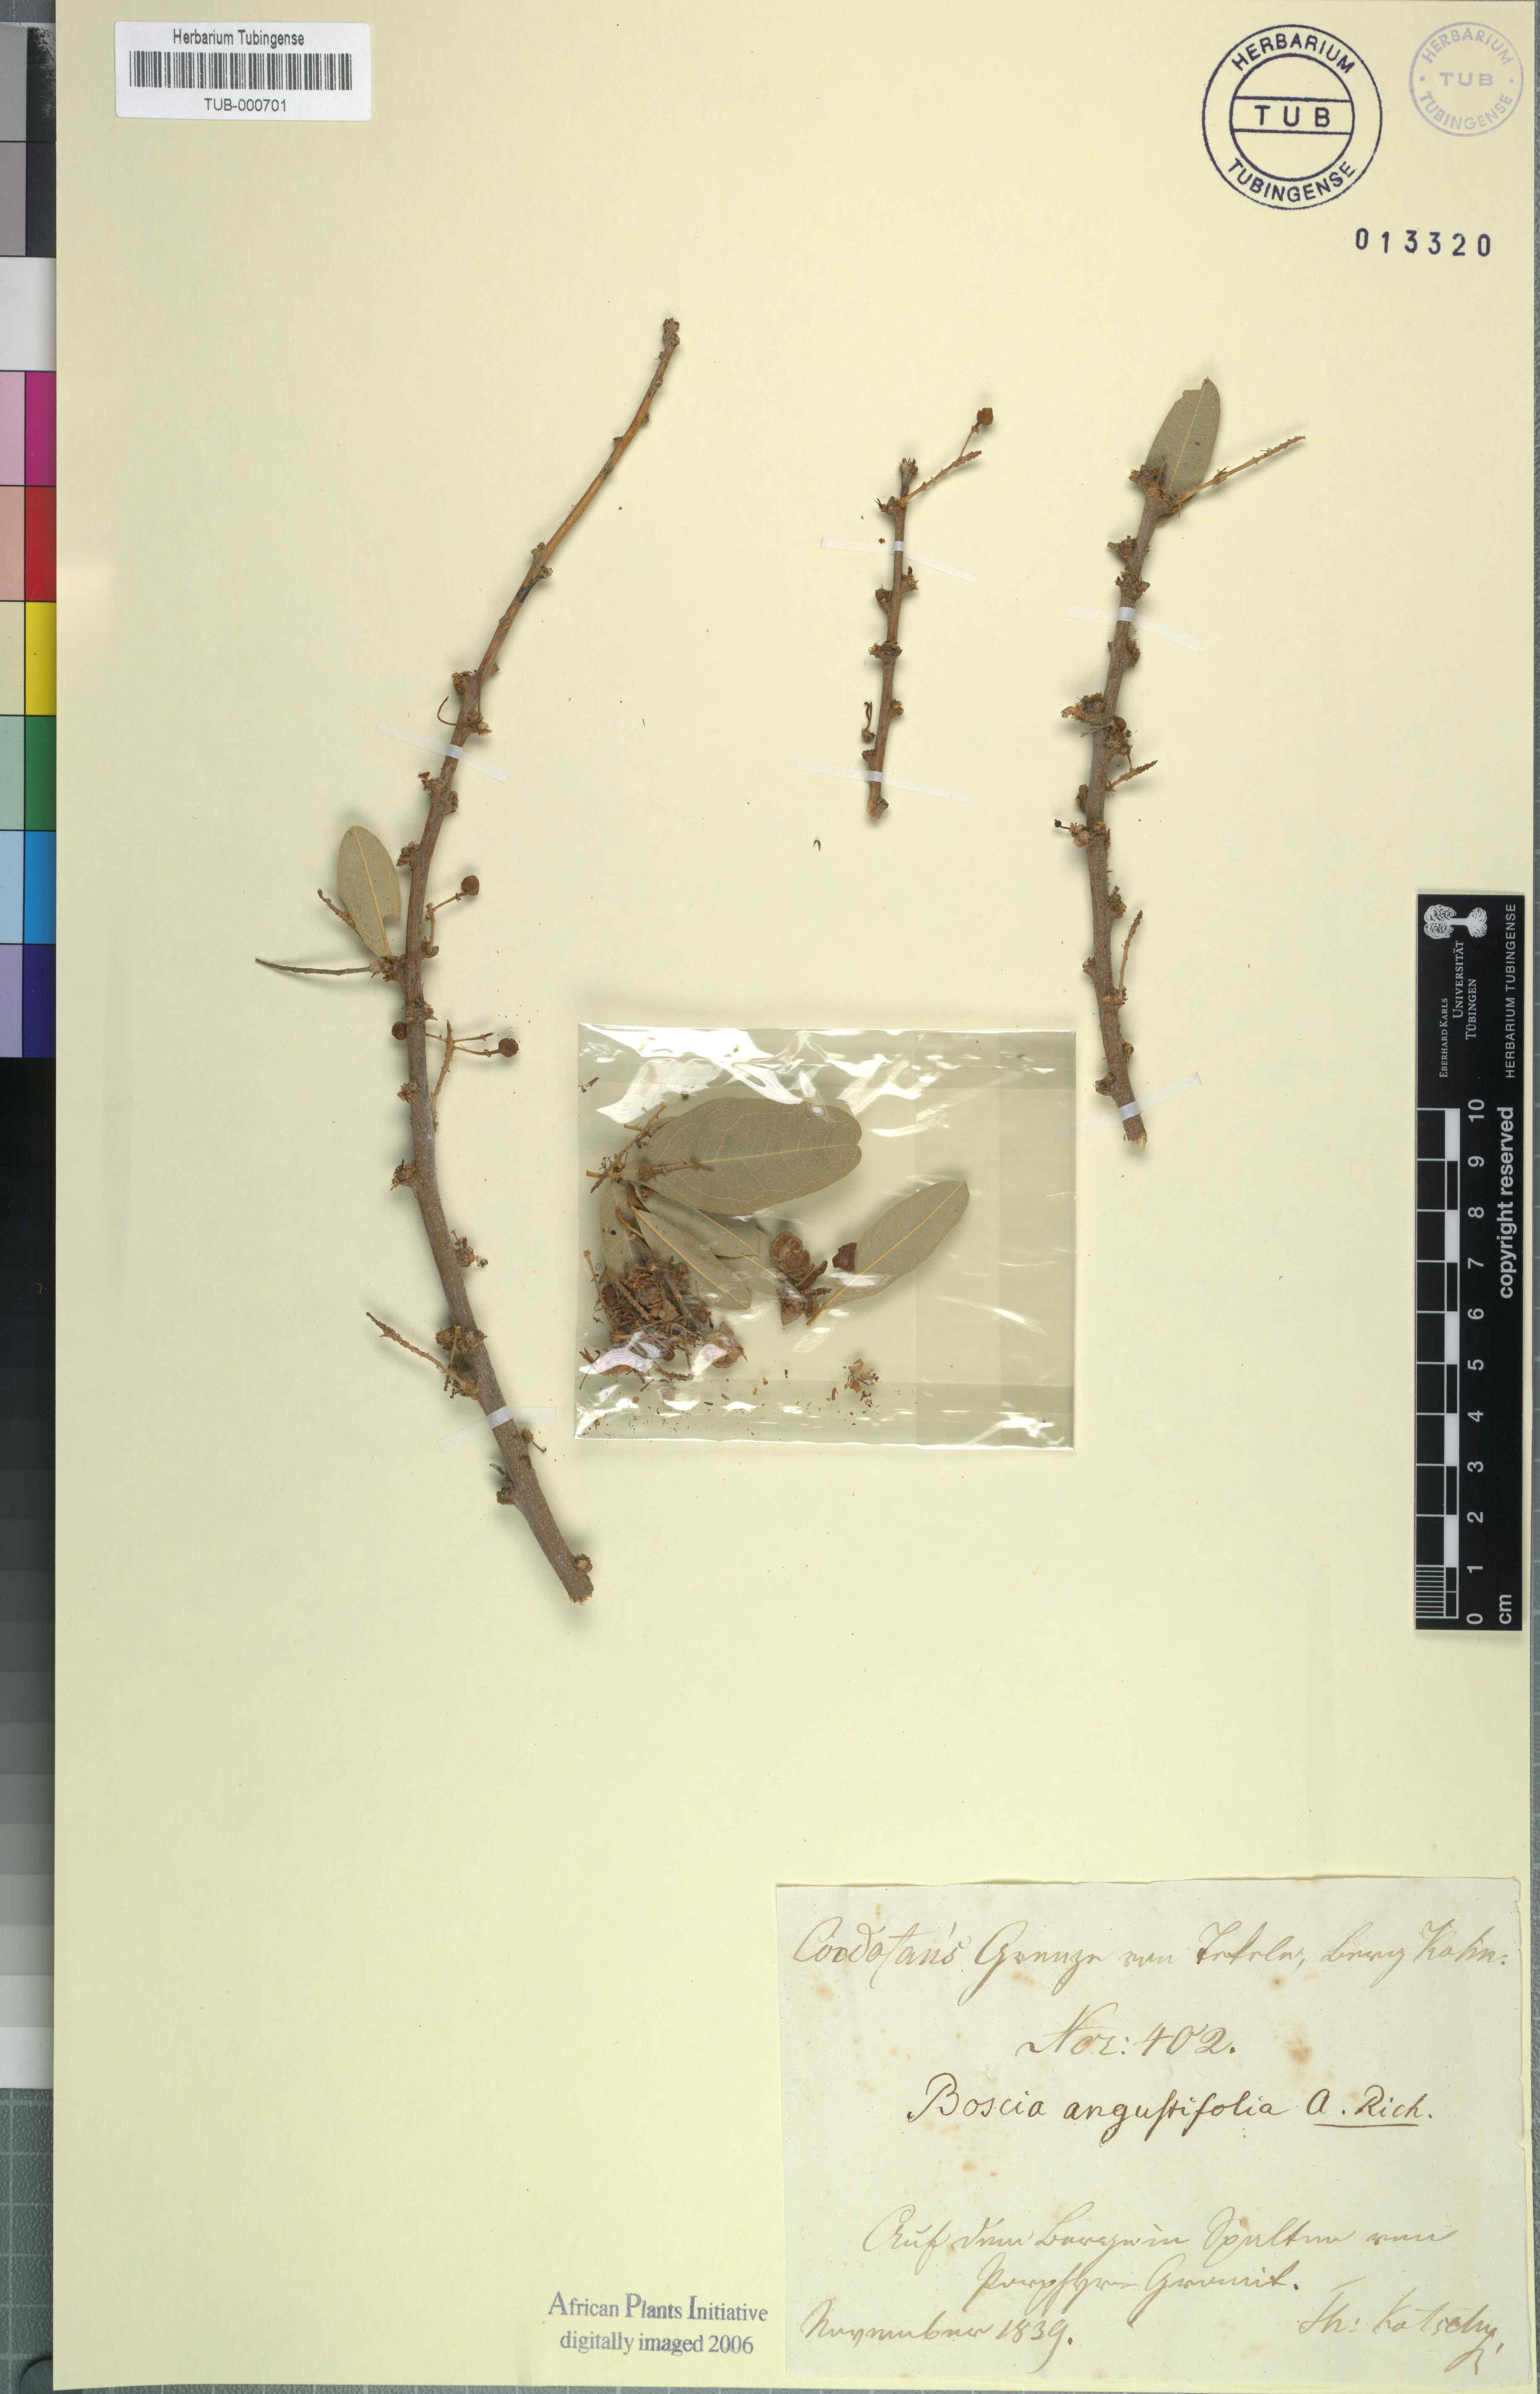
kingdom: Plantae
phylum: Tracheophyta
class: Magnoliopsida
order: Brassicales
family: Capparaceae
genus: Boscia
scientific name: Boscia angustifolia
